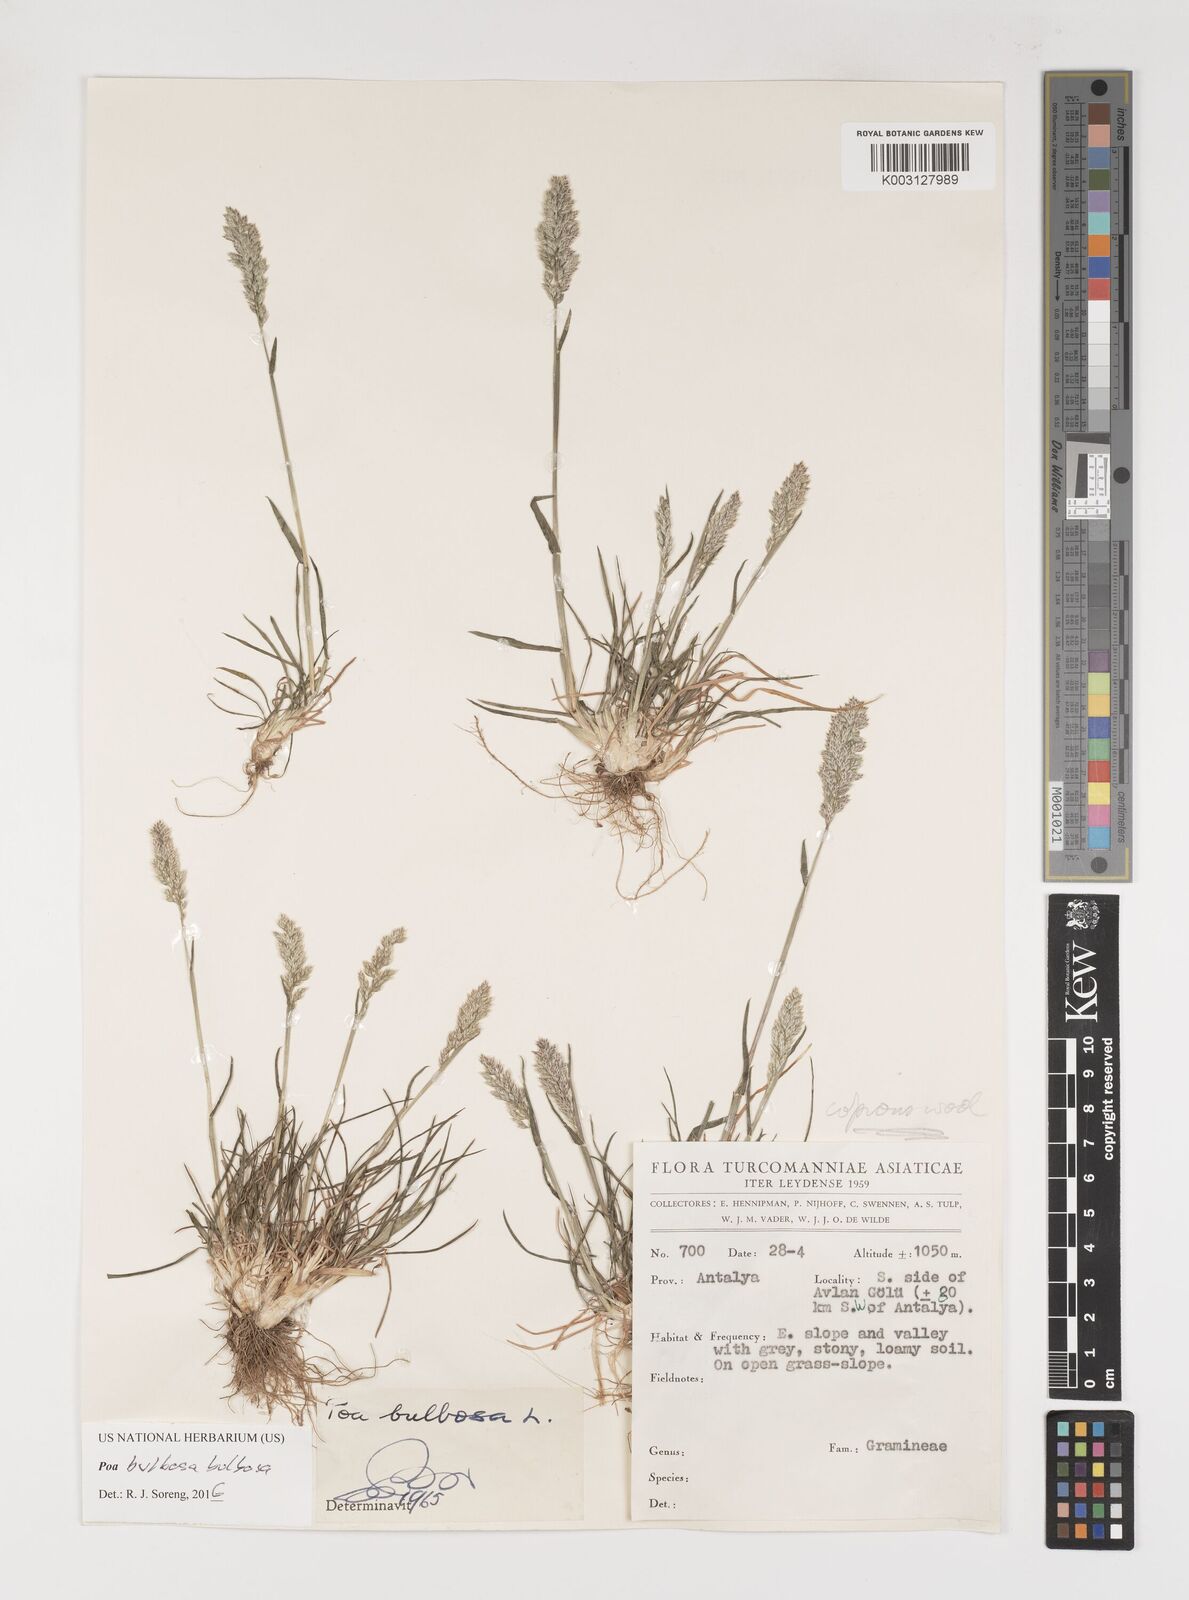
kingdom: Plantae
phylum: Tracheophyta
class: Liliopsida
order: Poales
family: Poaceae
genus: Poa
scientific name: Poa bulbosa
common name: Bulbous bluegrass
